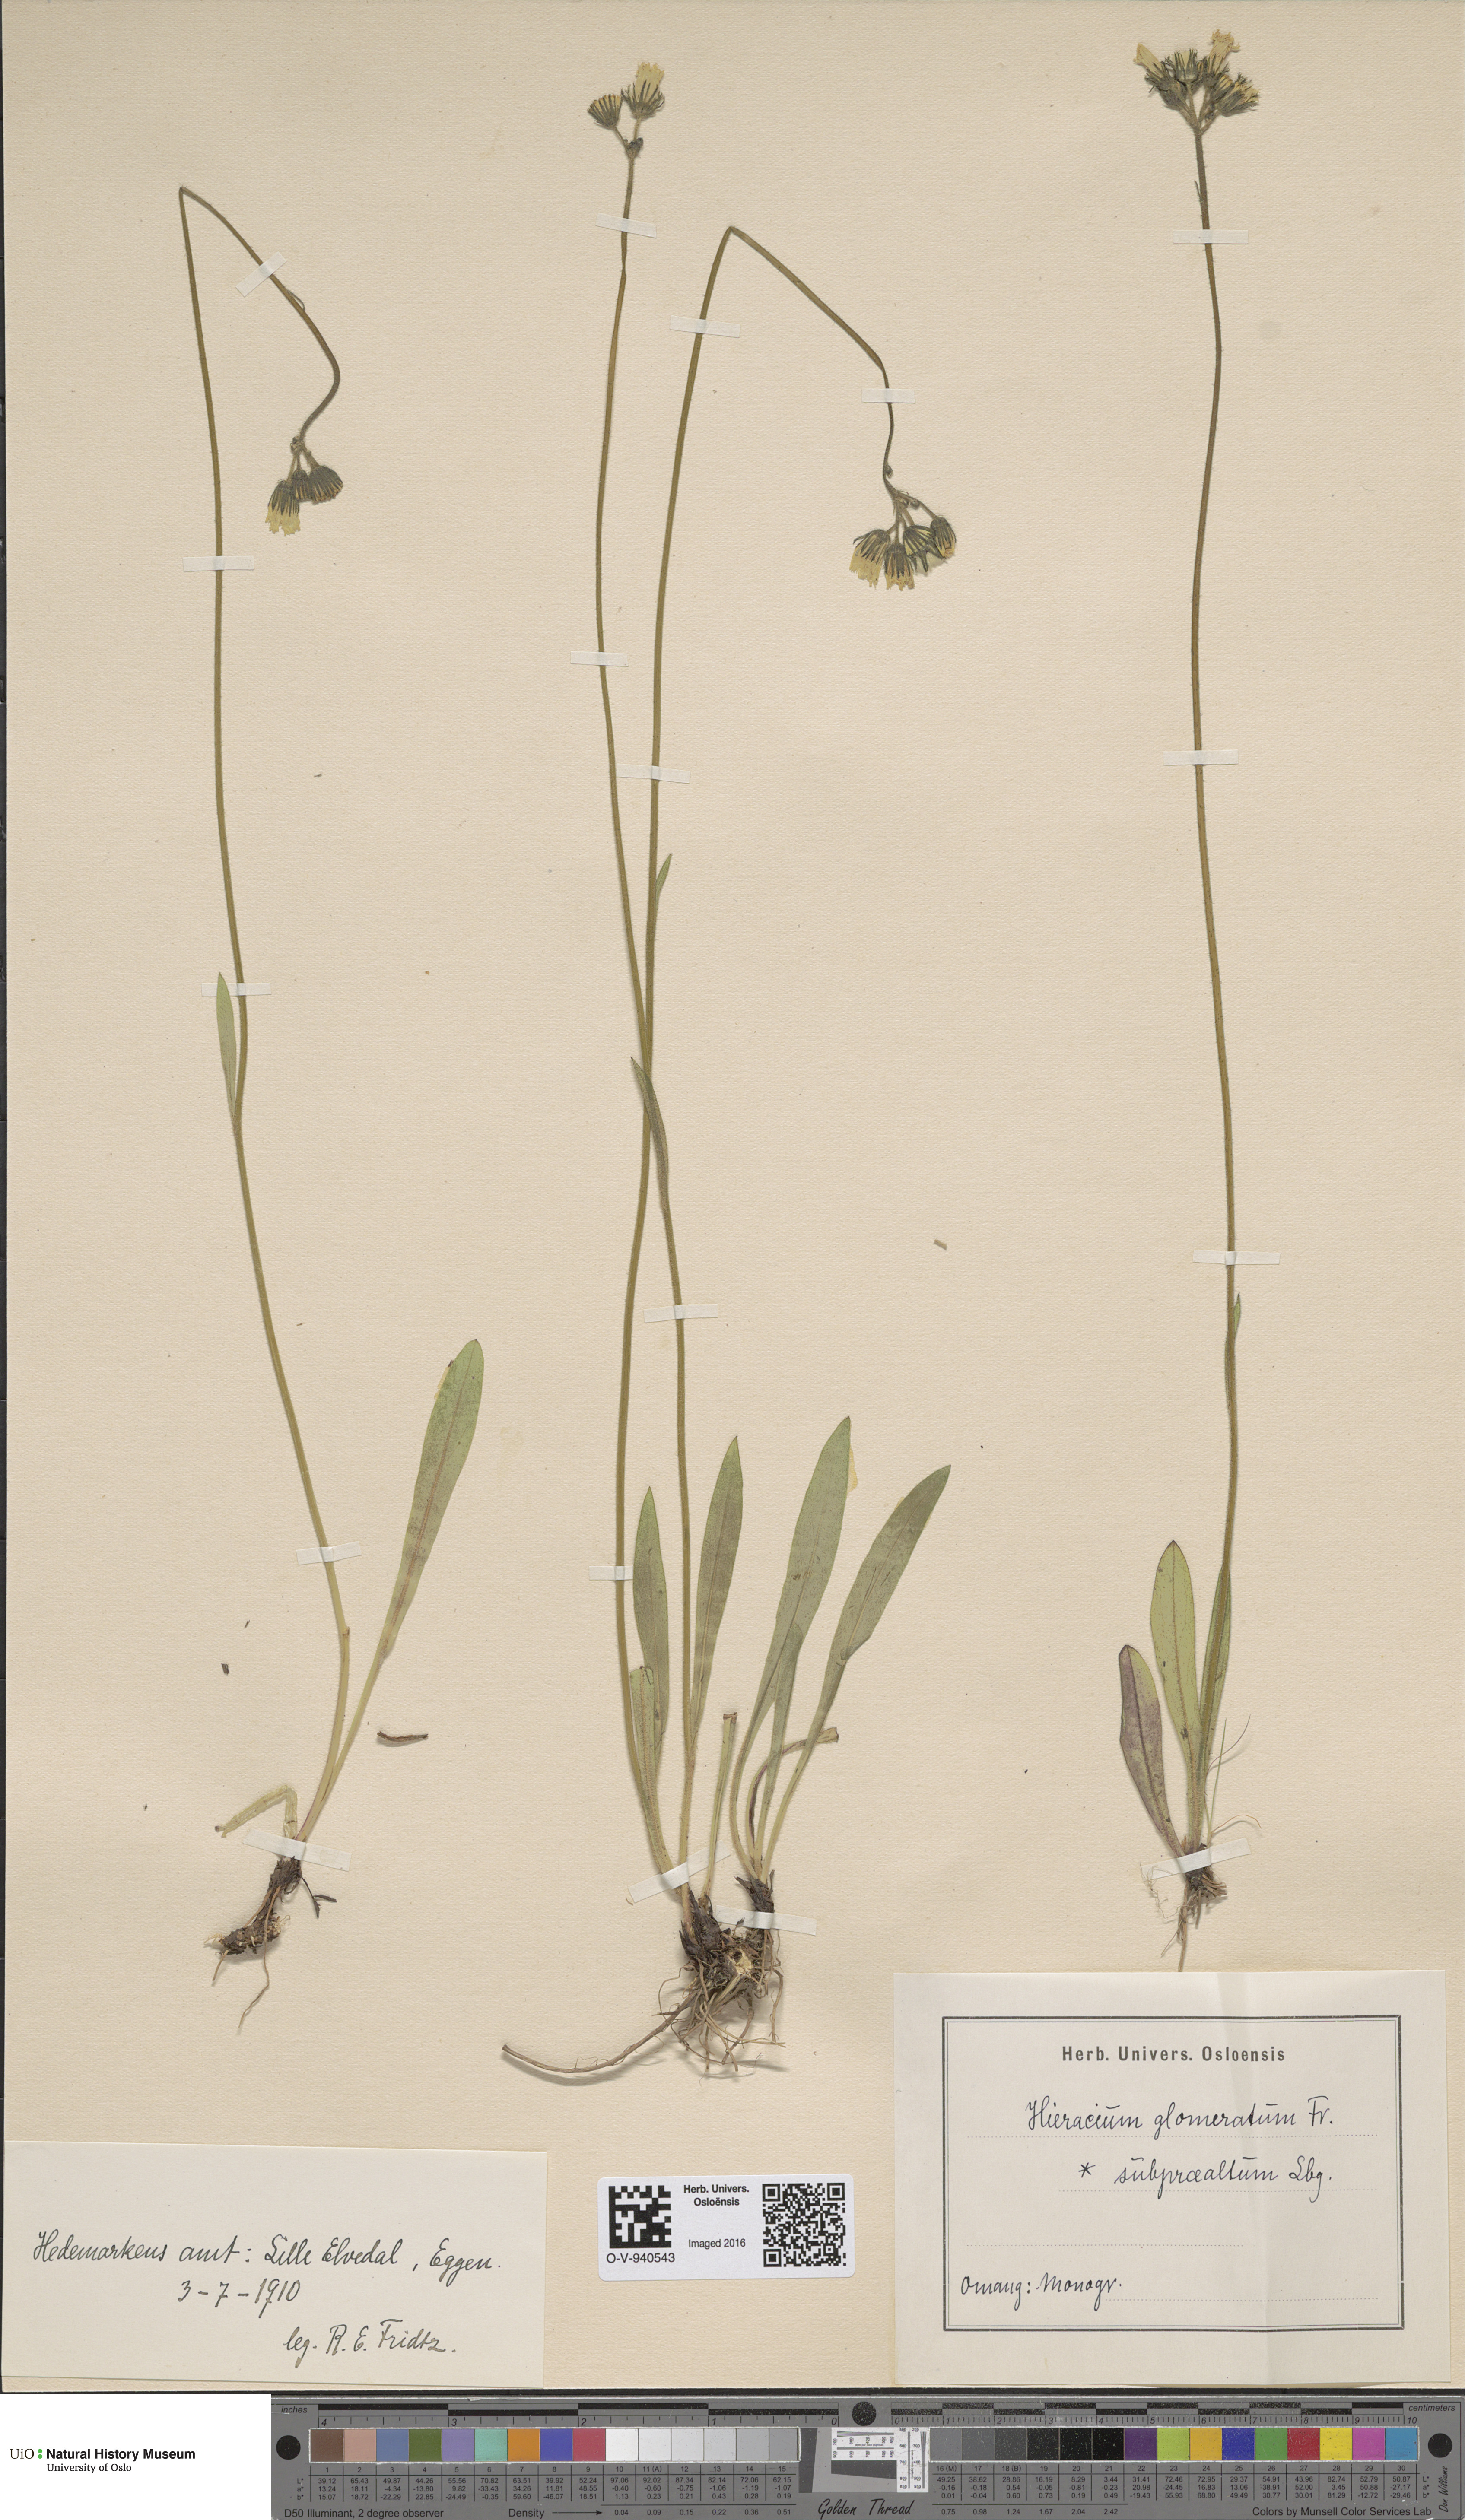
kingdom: Plantae
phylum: Tracheophyta
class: Magnoliopsida
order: Asterales
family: Asteraceae
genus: Pilosella
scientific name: Pilosella glomerata
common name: Queen devil hawkweed
